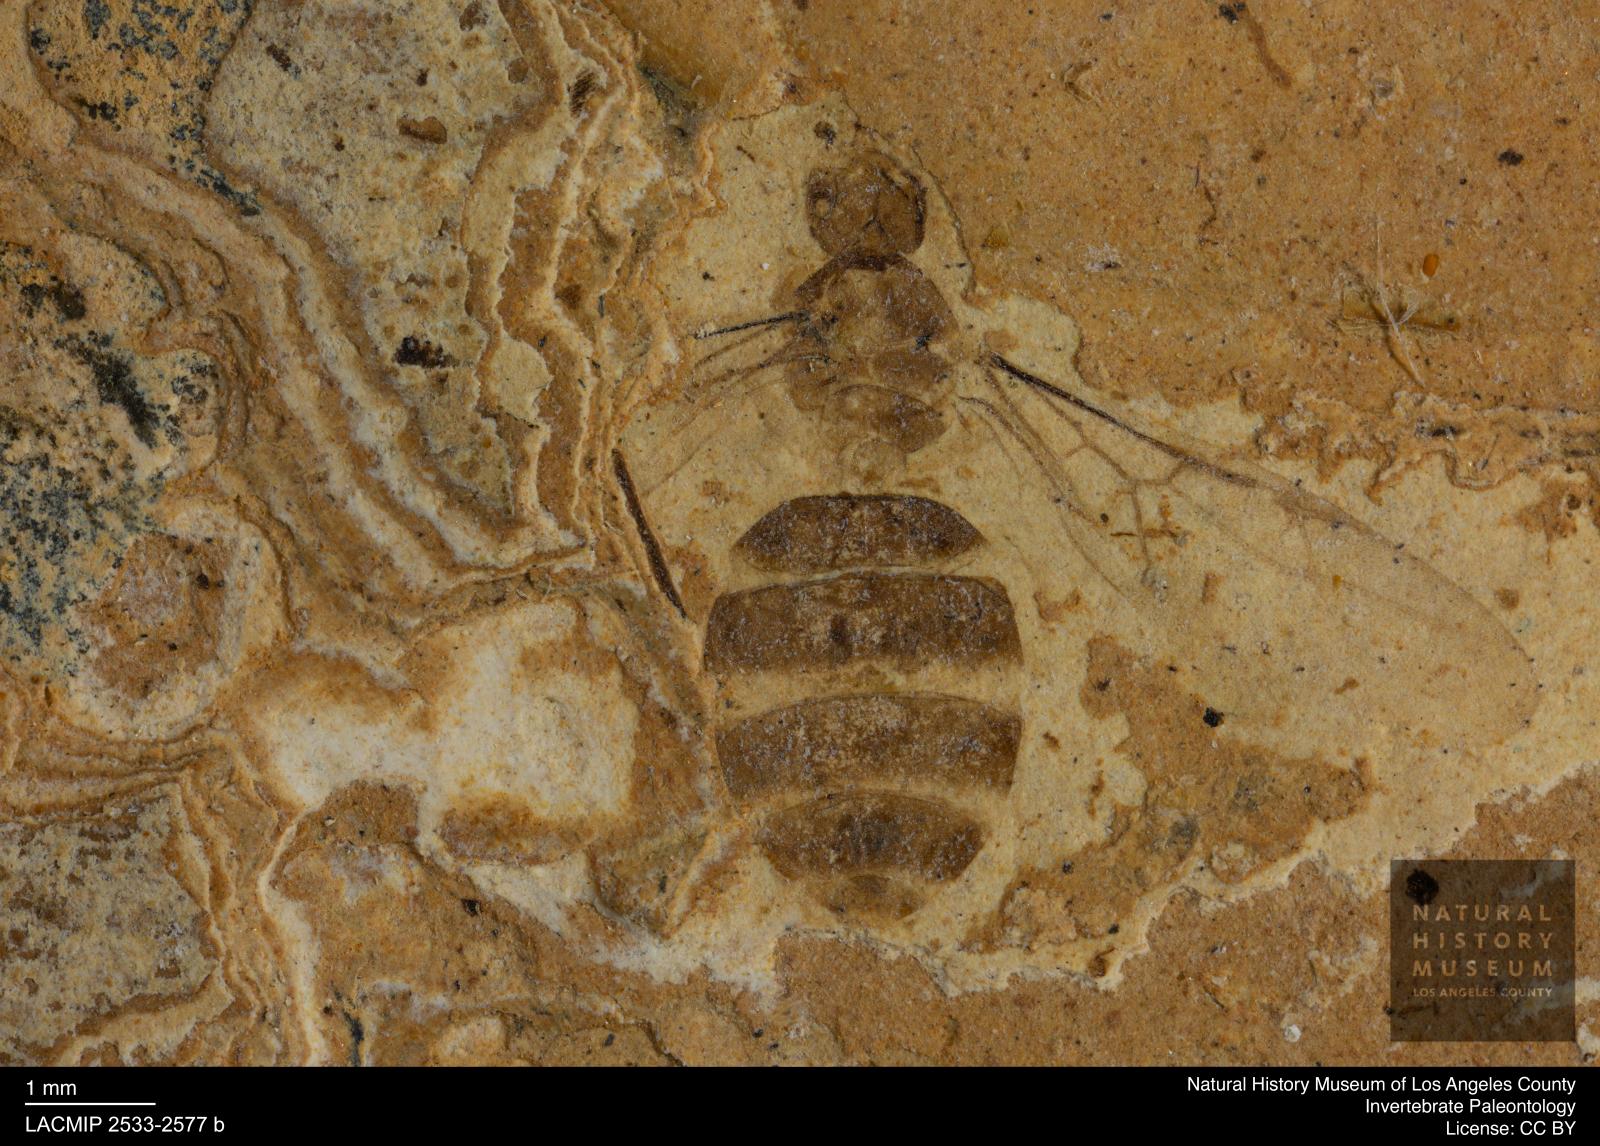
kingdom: Animalia
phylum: Arthropoda
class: Insecta
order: Hymenoptera
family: Formicidae
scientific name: Formicidae
